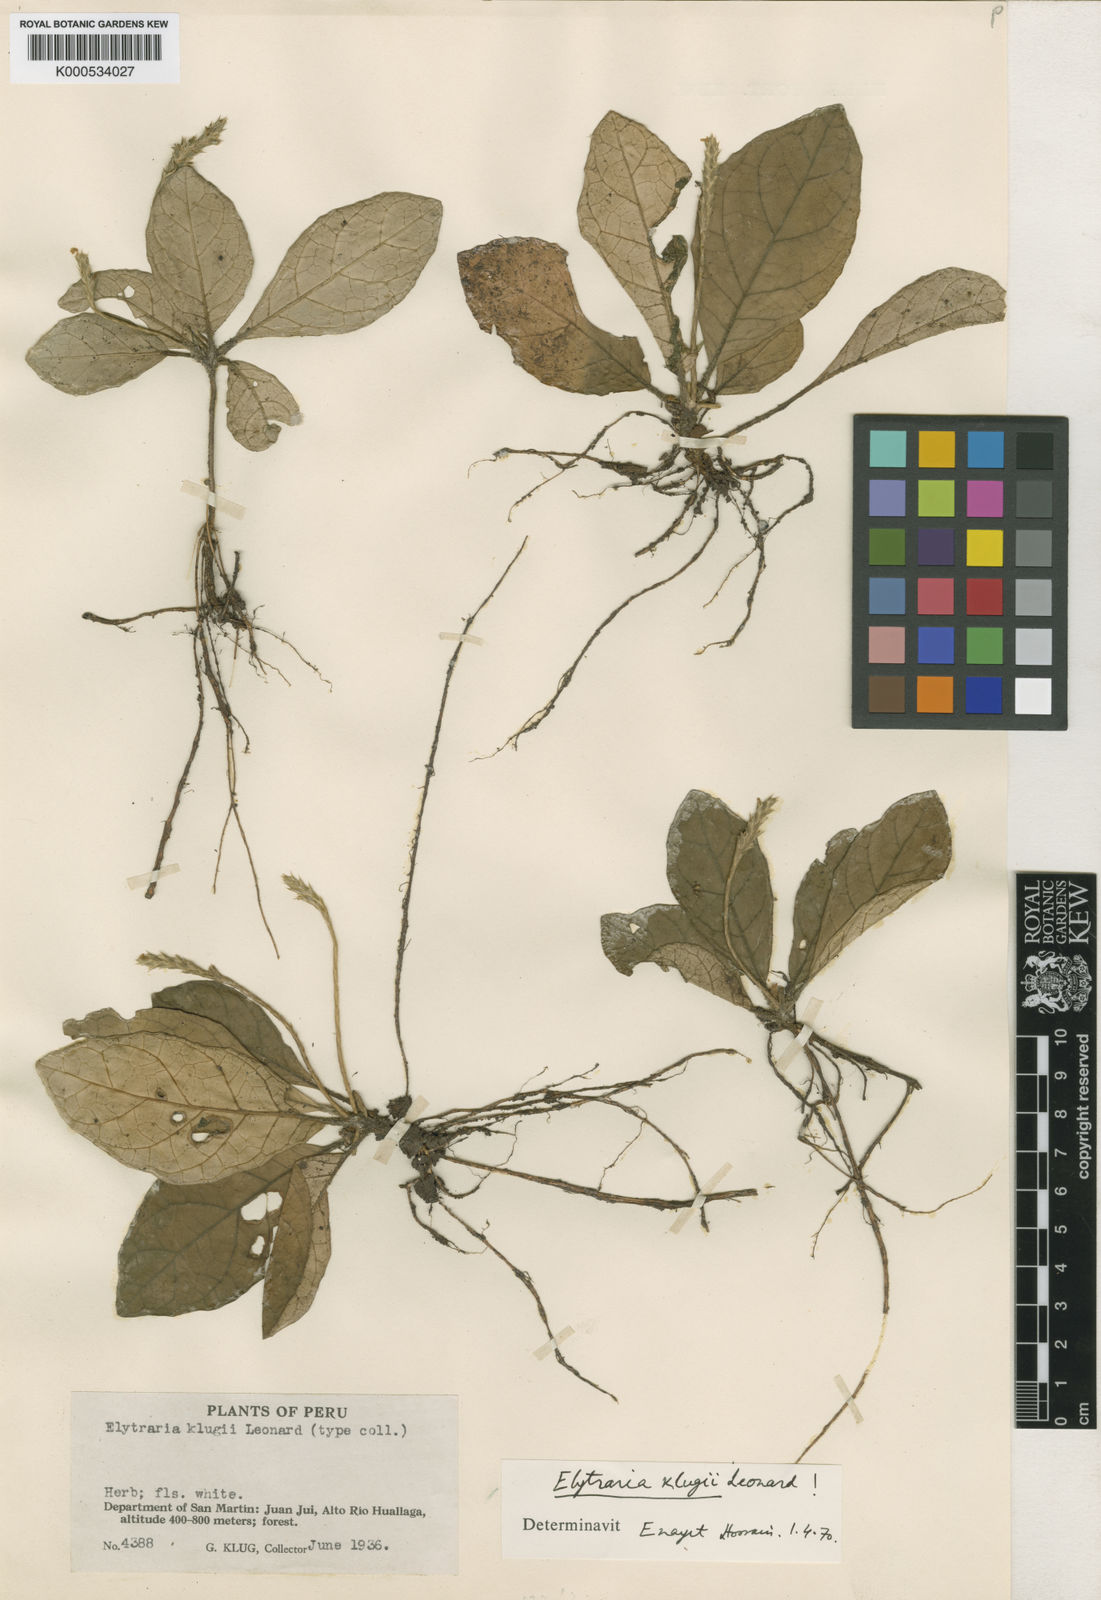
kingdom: Plantae
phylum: Tracheophyta
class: Magnoliopsida
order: Lamiales
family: Acanthaceae
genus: Elytraria
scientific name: Elytraria klugii
